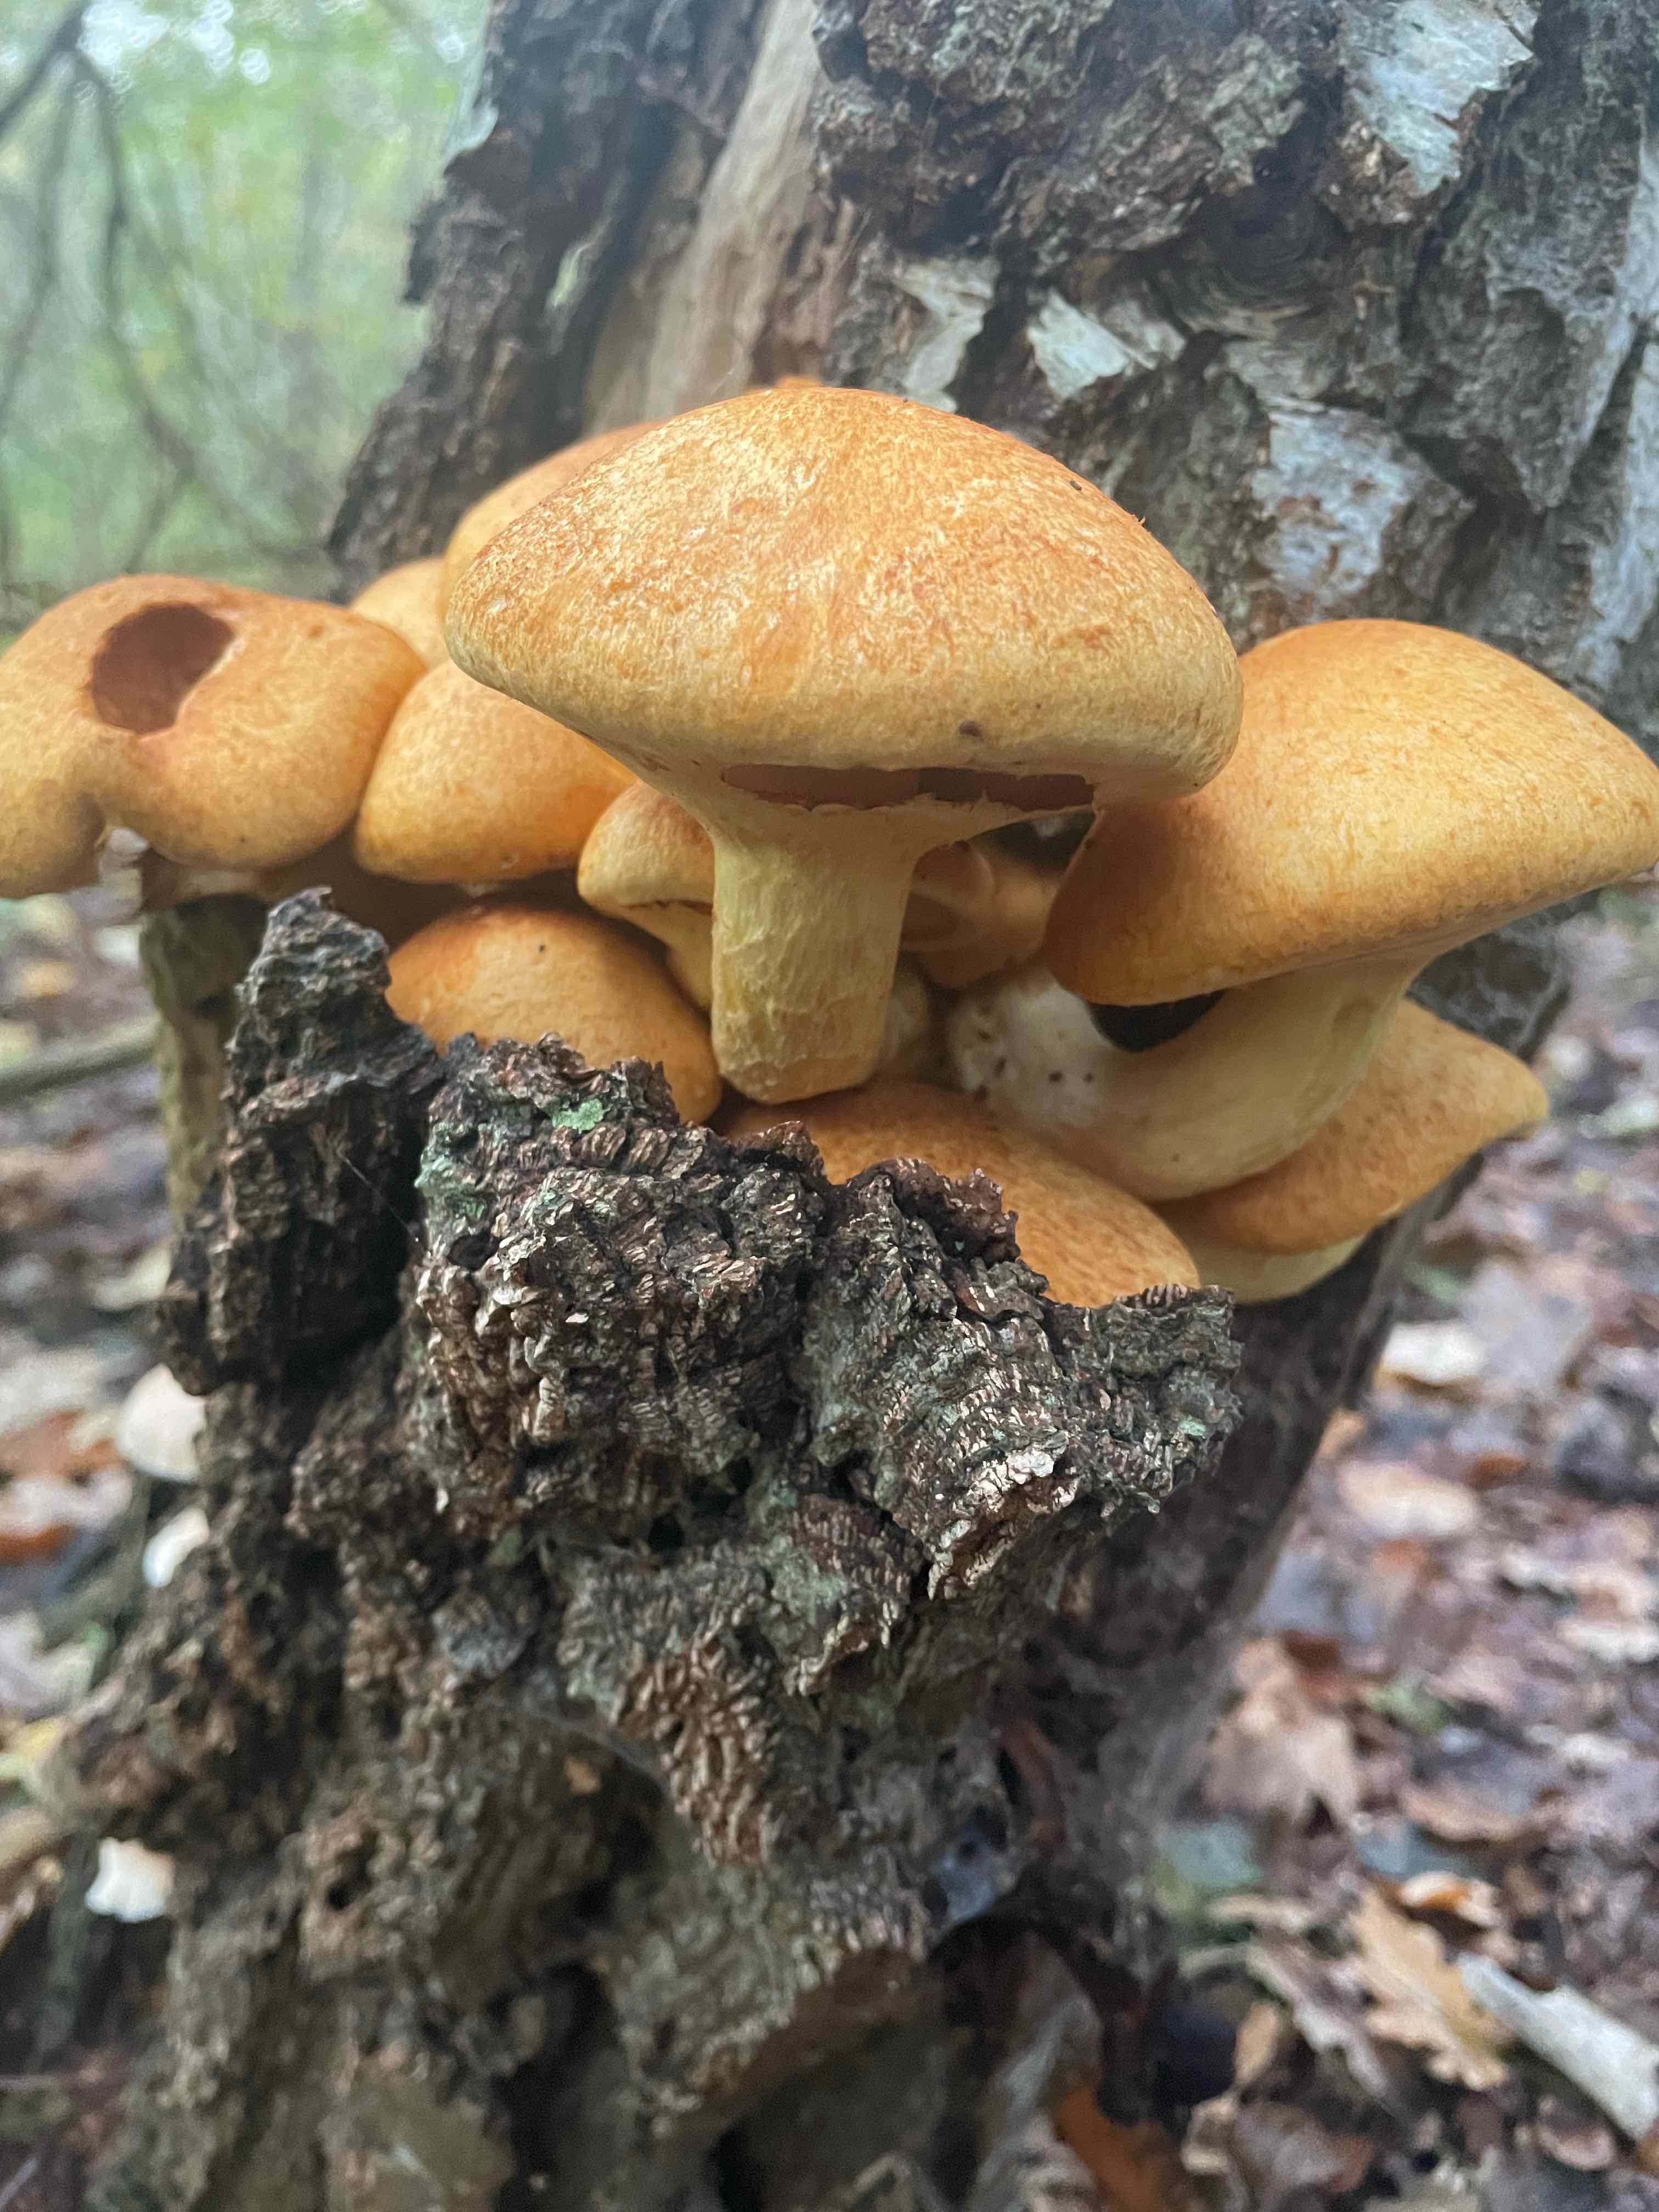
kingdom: Fungi
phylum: Basidiomycota
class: Agaricomycetes
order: Agaricales
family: Hymenogastraceae
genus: Gymnopilus
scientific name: Gymnopilus spectabilis
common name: fibret flammehat
